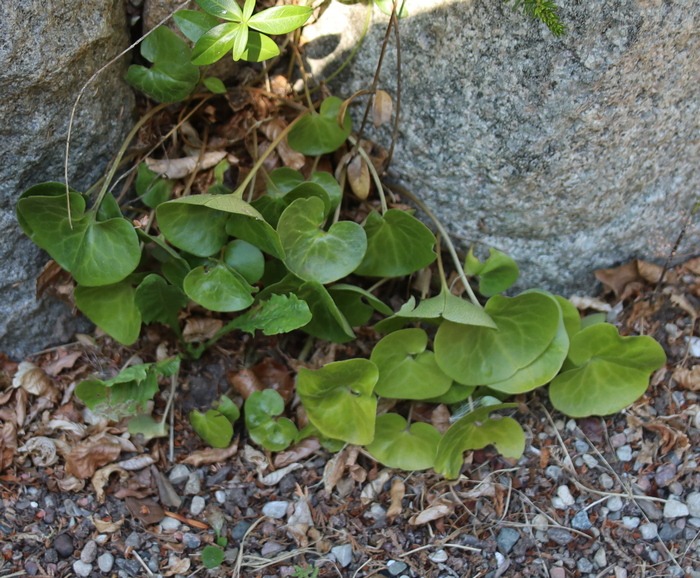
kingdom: Plantae
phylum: Tracheophyta
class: Magnoliopsida
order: Piperales
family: Aristolochiaceae
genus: Asarum
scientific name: Asarum europaeum
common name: Hasselurt
